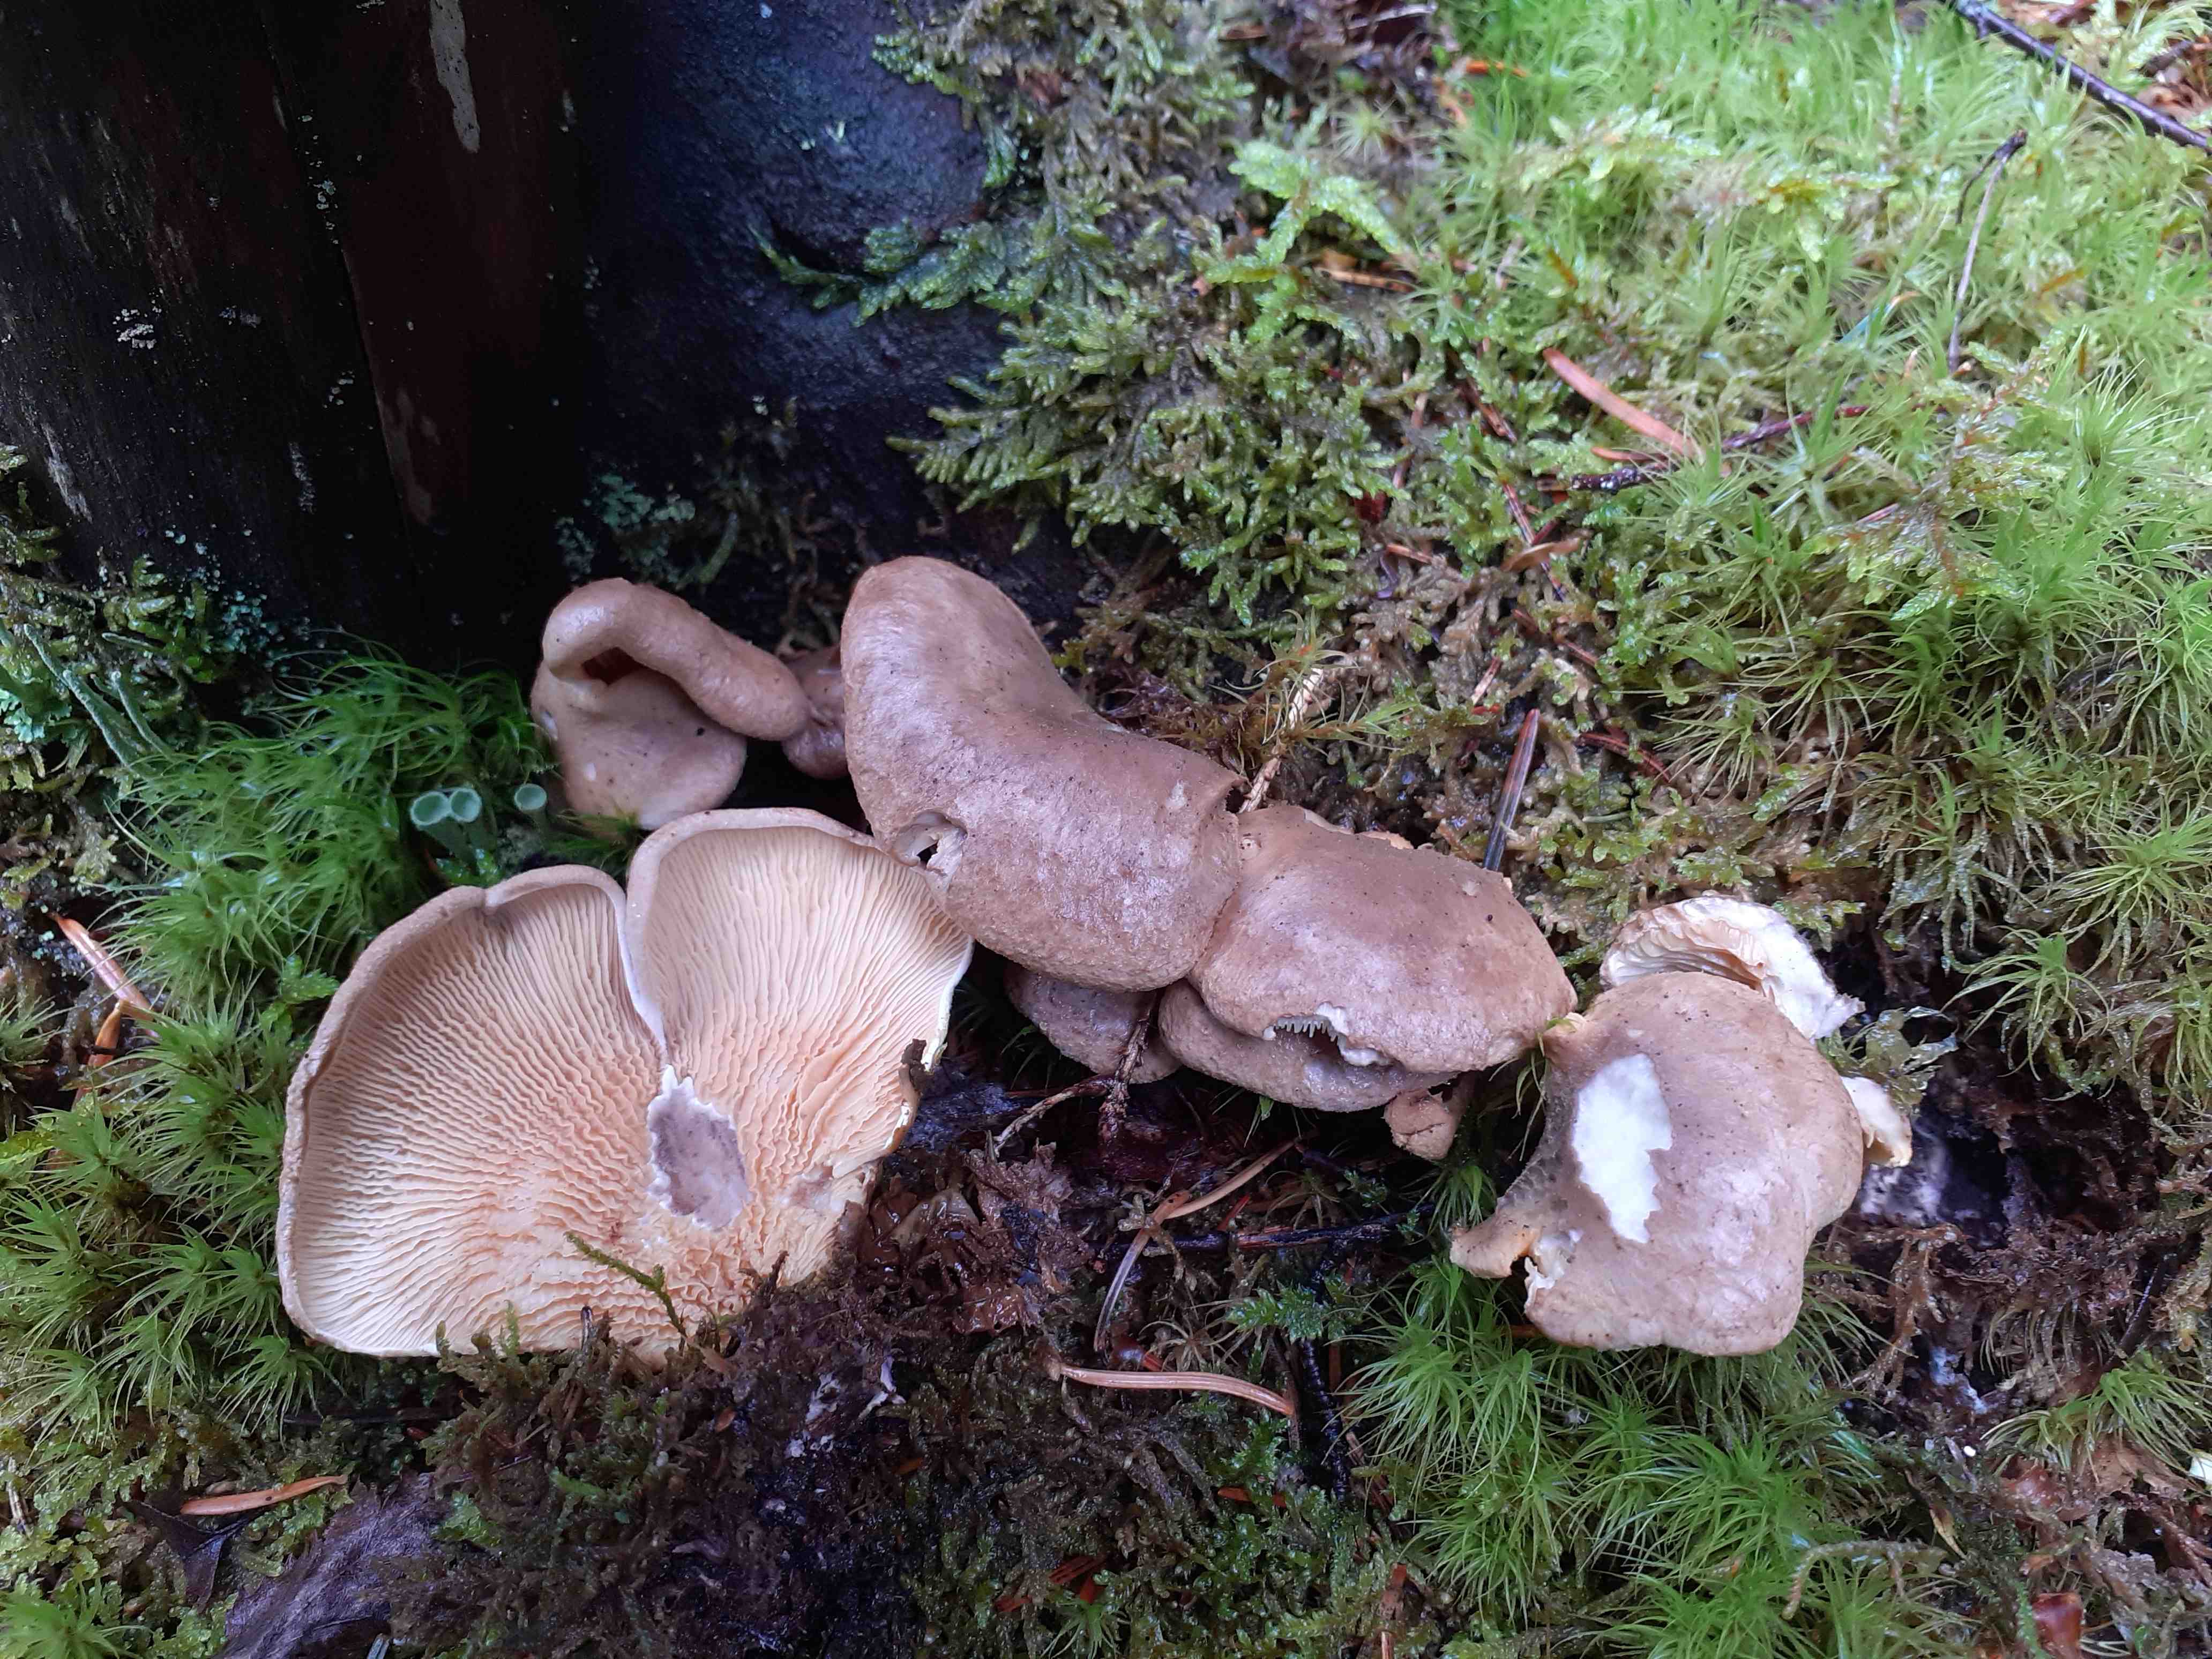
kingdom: Fungi
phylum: Basidiomycota
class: Agaricomycetes
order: Boletales
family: Tapinellaceae
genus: Tapinella
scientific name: Tapinella panuoides
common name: tømmer-viftesvamp
